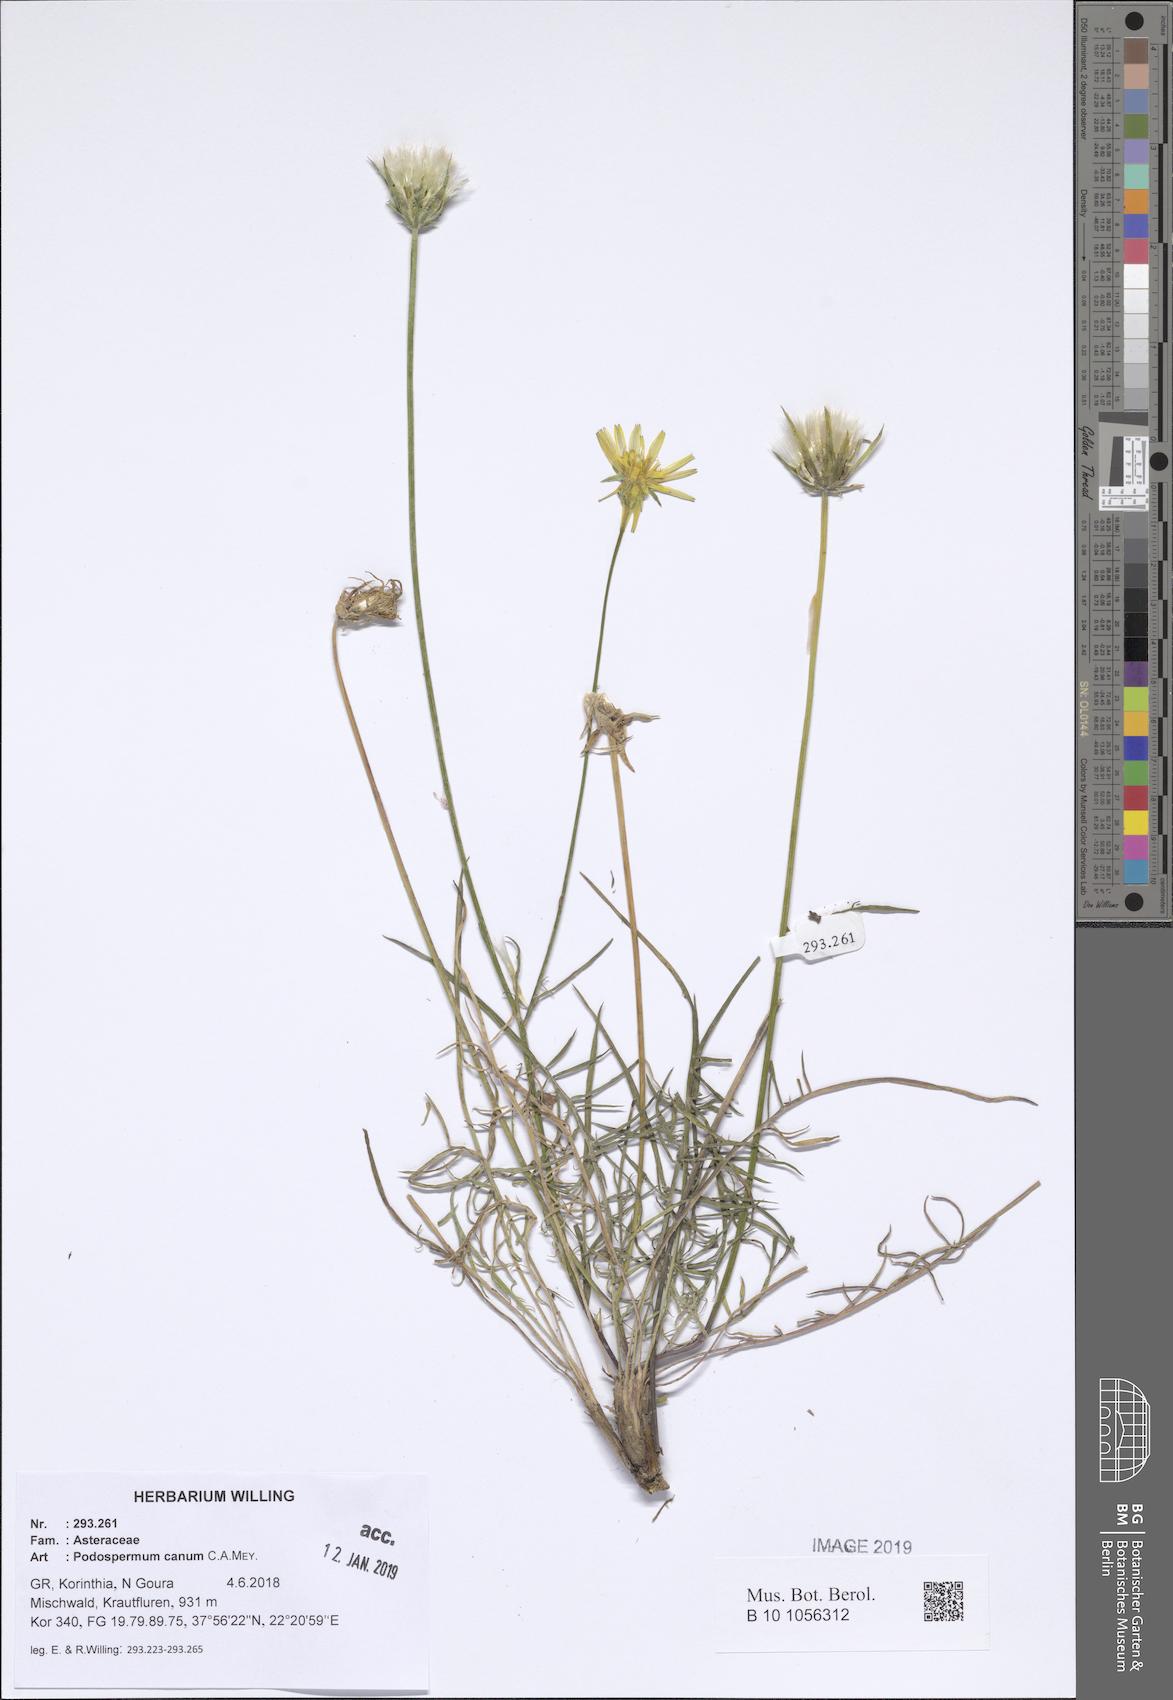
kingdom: Plantae
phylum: Tracheophyta
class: Magnoliopsida
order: Asterales
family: Asteraceae
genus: Scorzonera
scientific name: Scorzonera cana
